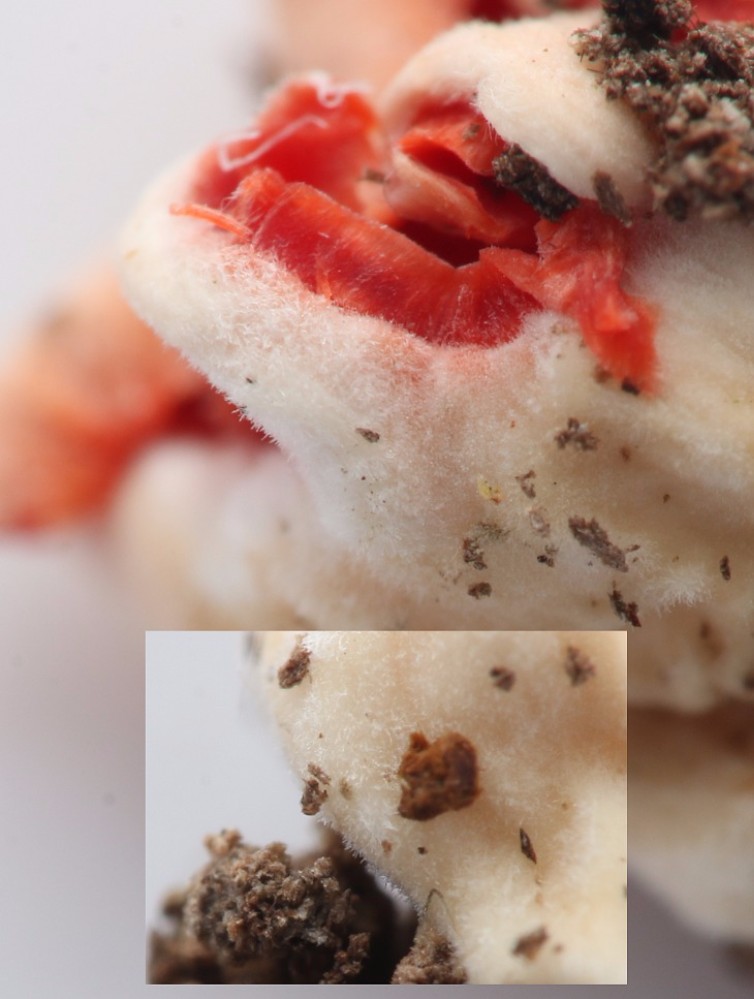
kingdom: Fungi
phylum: Ascomycota
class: Pezizomycetes
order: Pezizales
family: Sarcoscyphaceae
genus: Sarcoscypha
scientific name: Sarcoscypha coccinea
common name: skarlagen-pragtbæger
